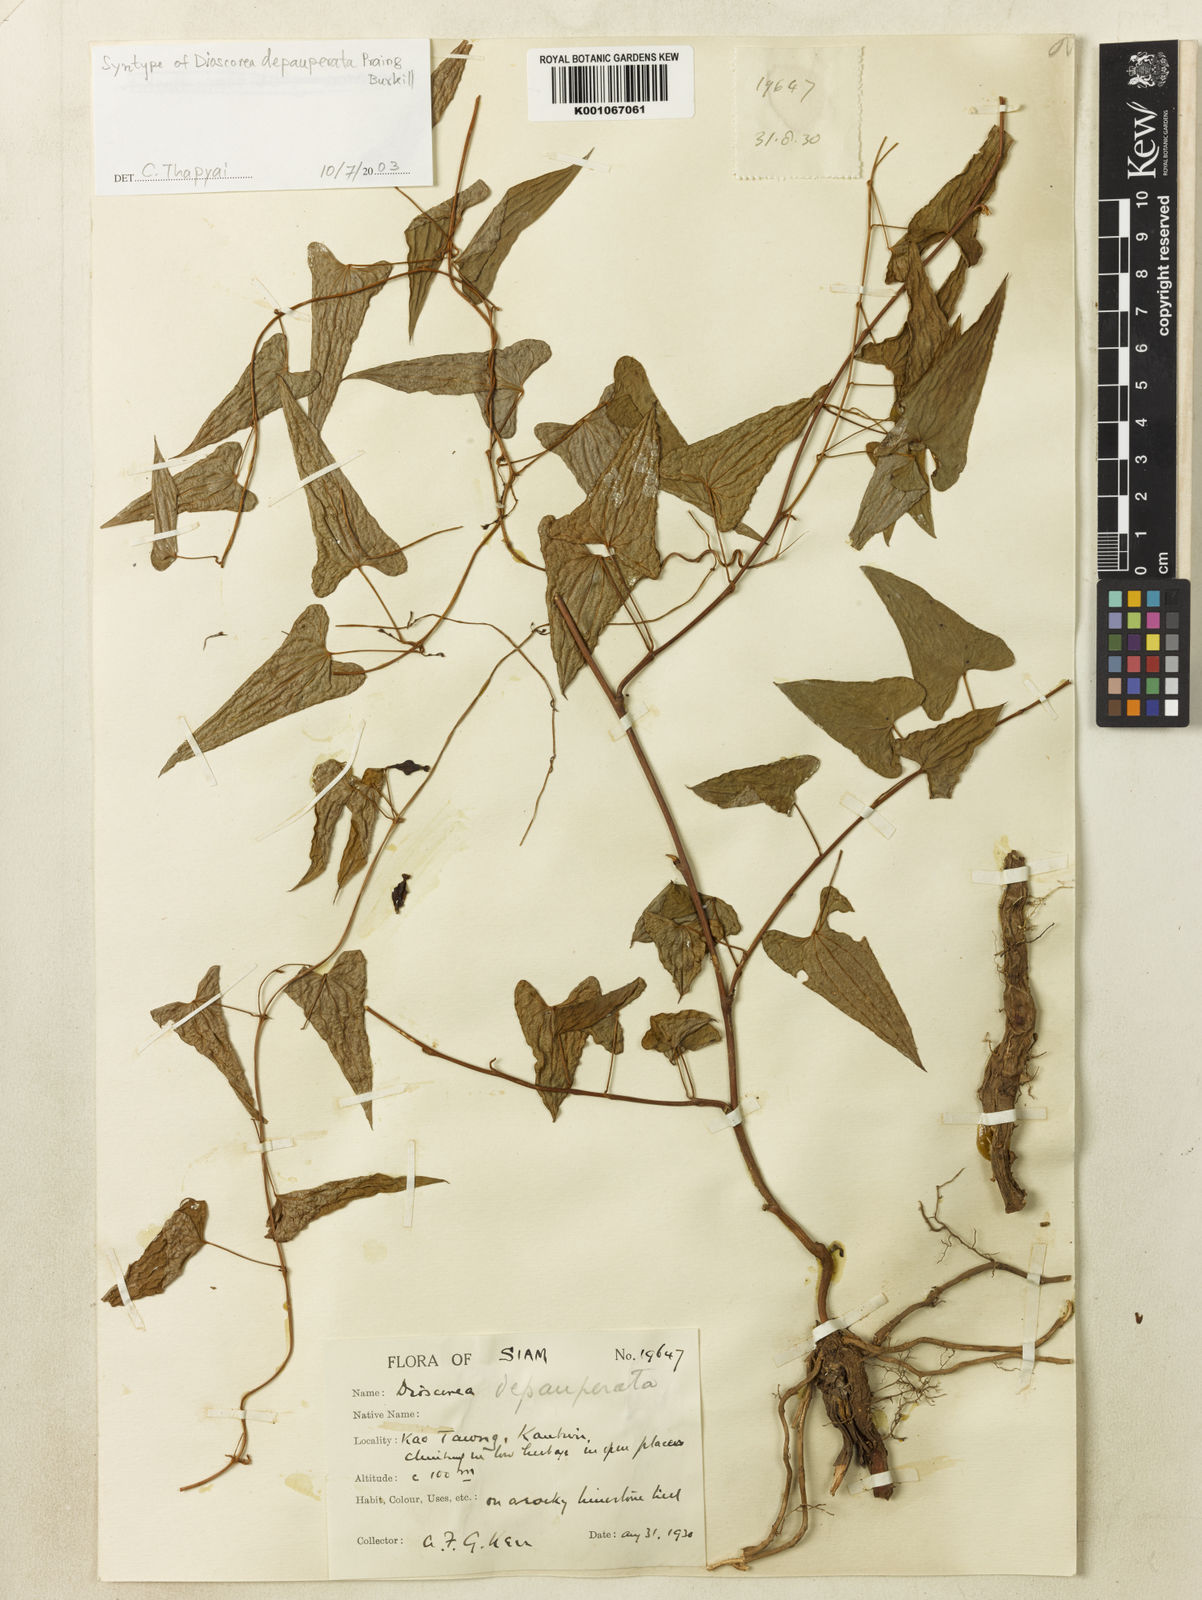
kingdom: Plantae
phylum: Tracheophyta
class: Liliopsida
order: Dioscoreales
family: Dioscoreaceae
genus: Dioscorea
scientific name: Dioscorea depauperata
